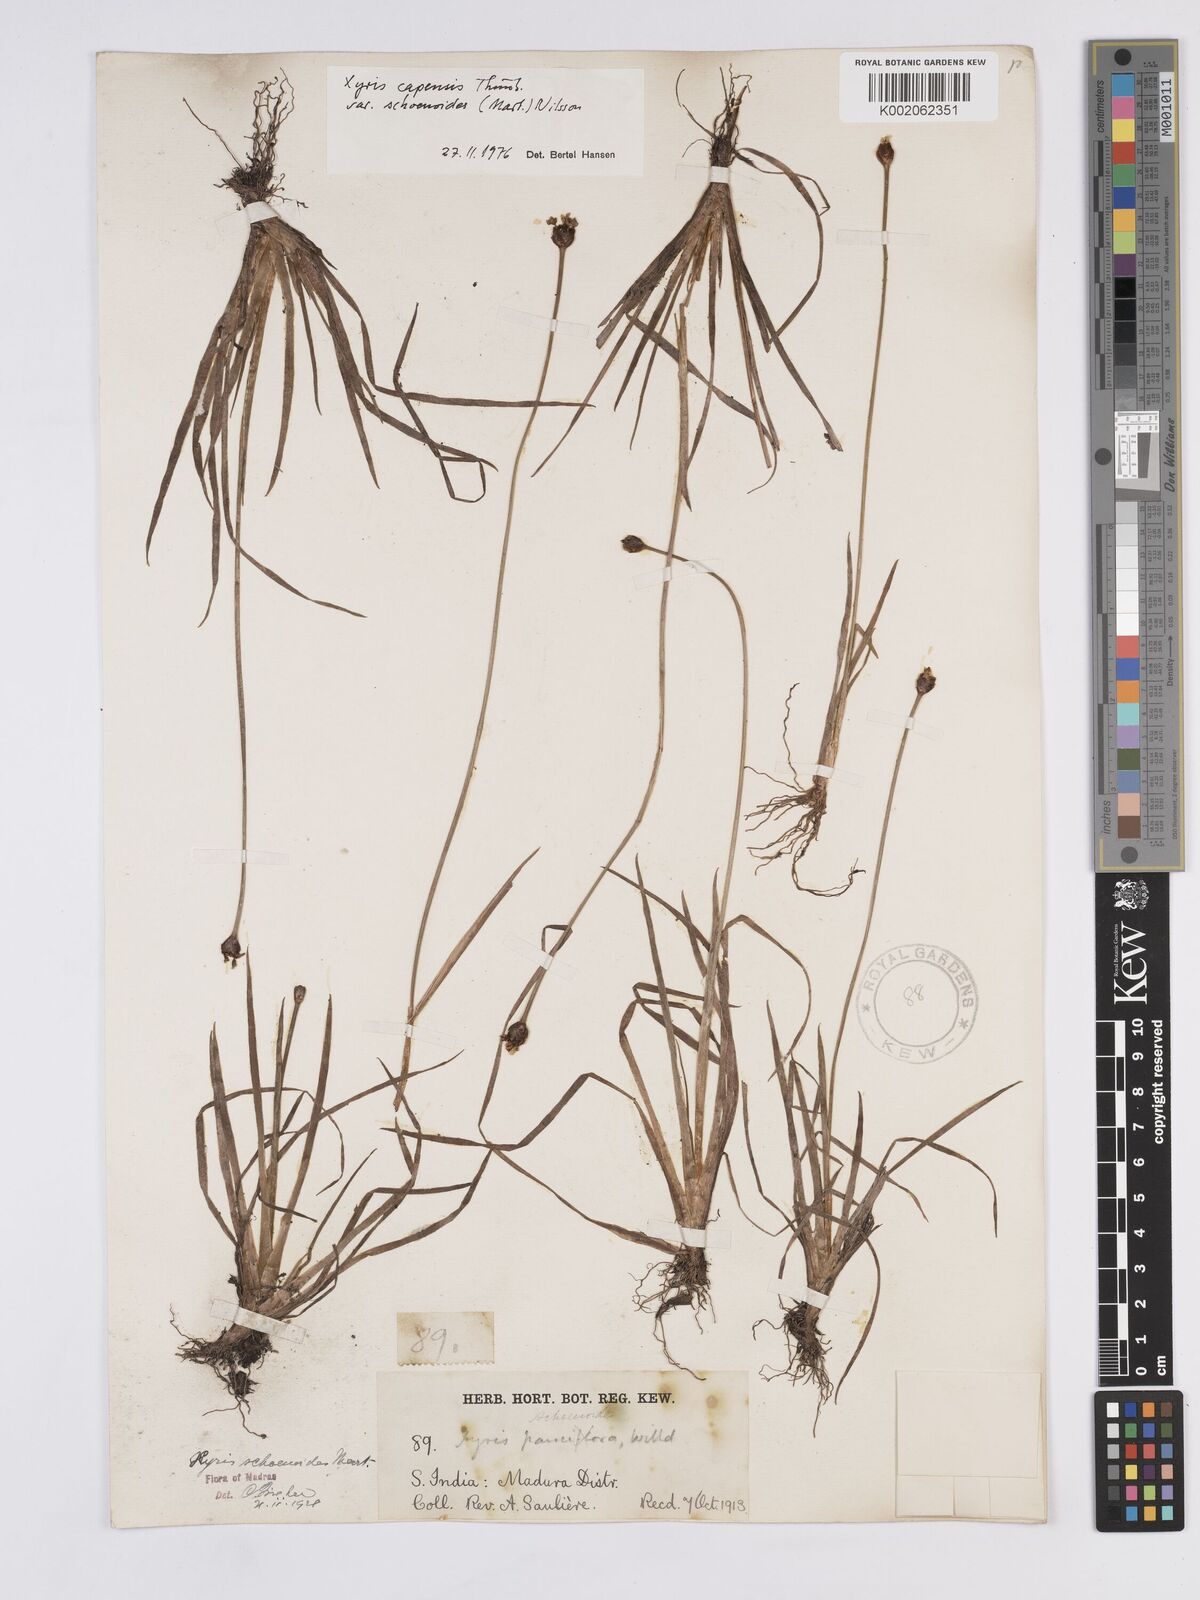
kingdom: Plantae
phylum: Tracheophyta
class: Liliopsida
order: Poales
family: Xyridaceae
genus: Xyris
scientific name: Xyris capensis
